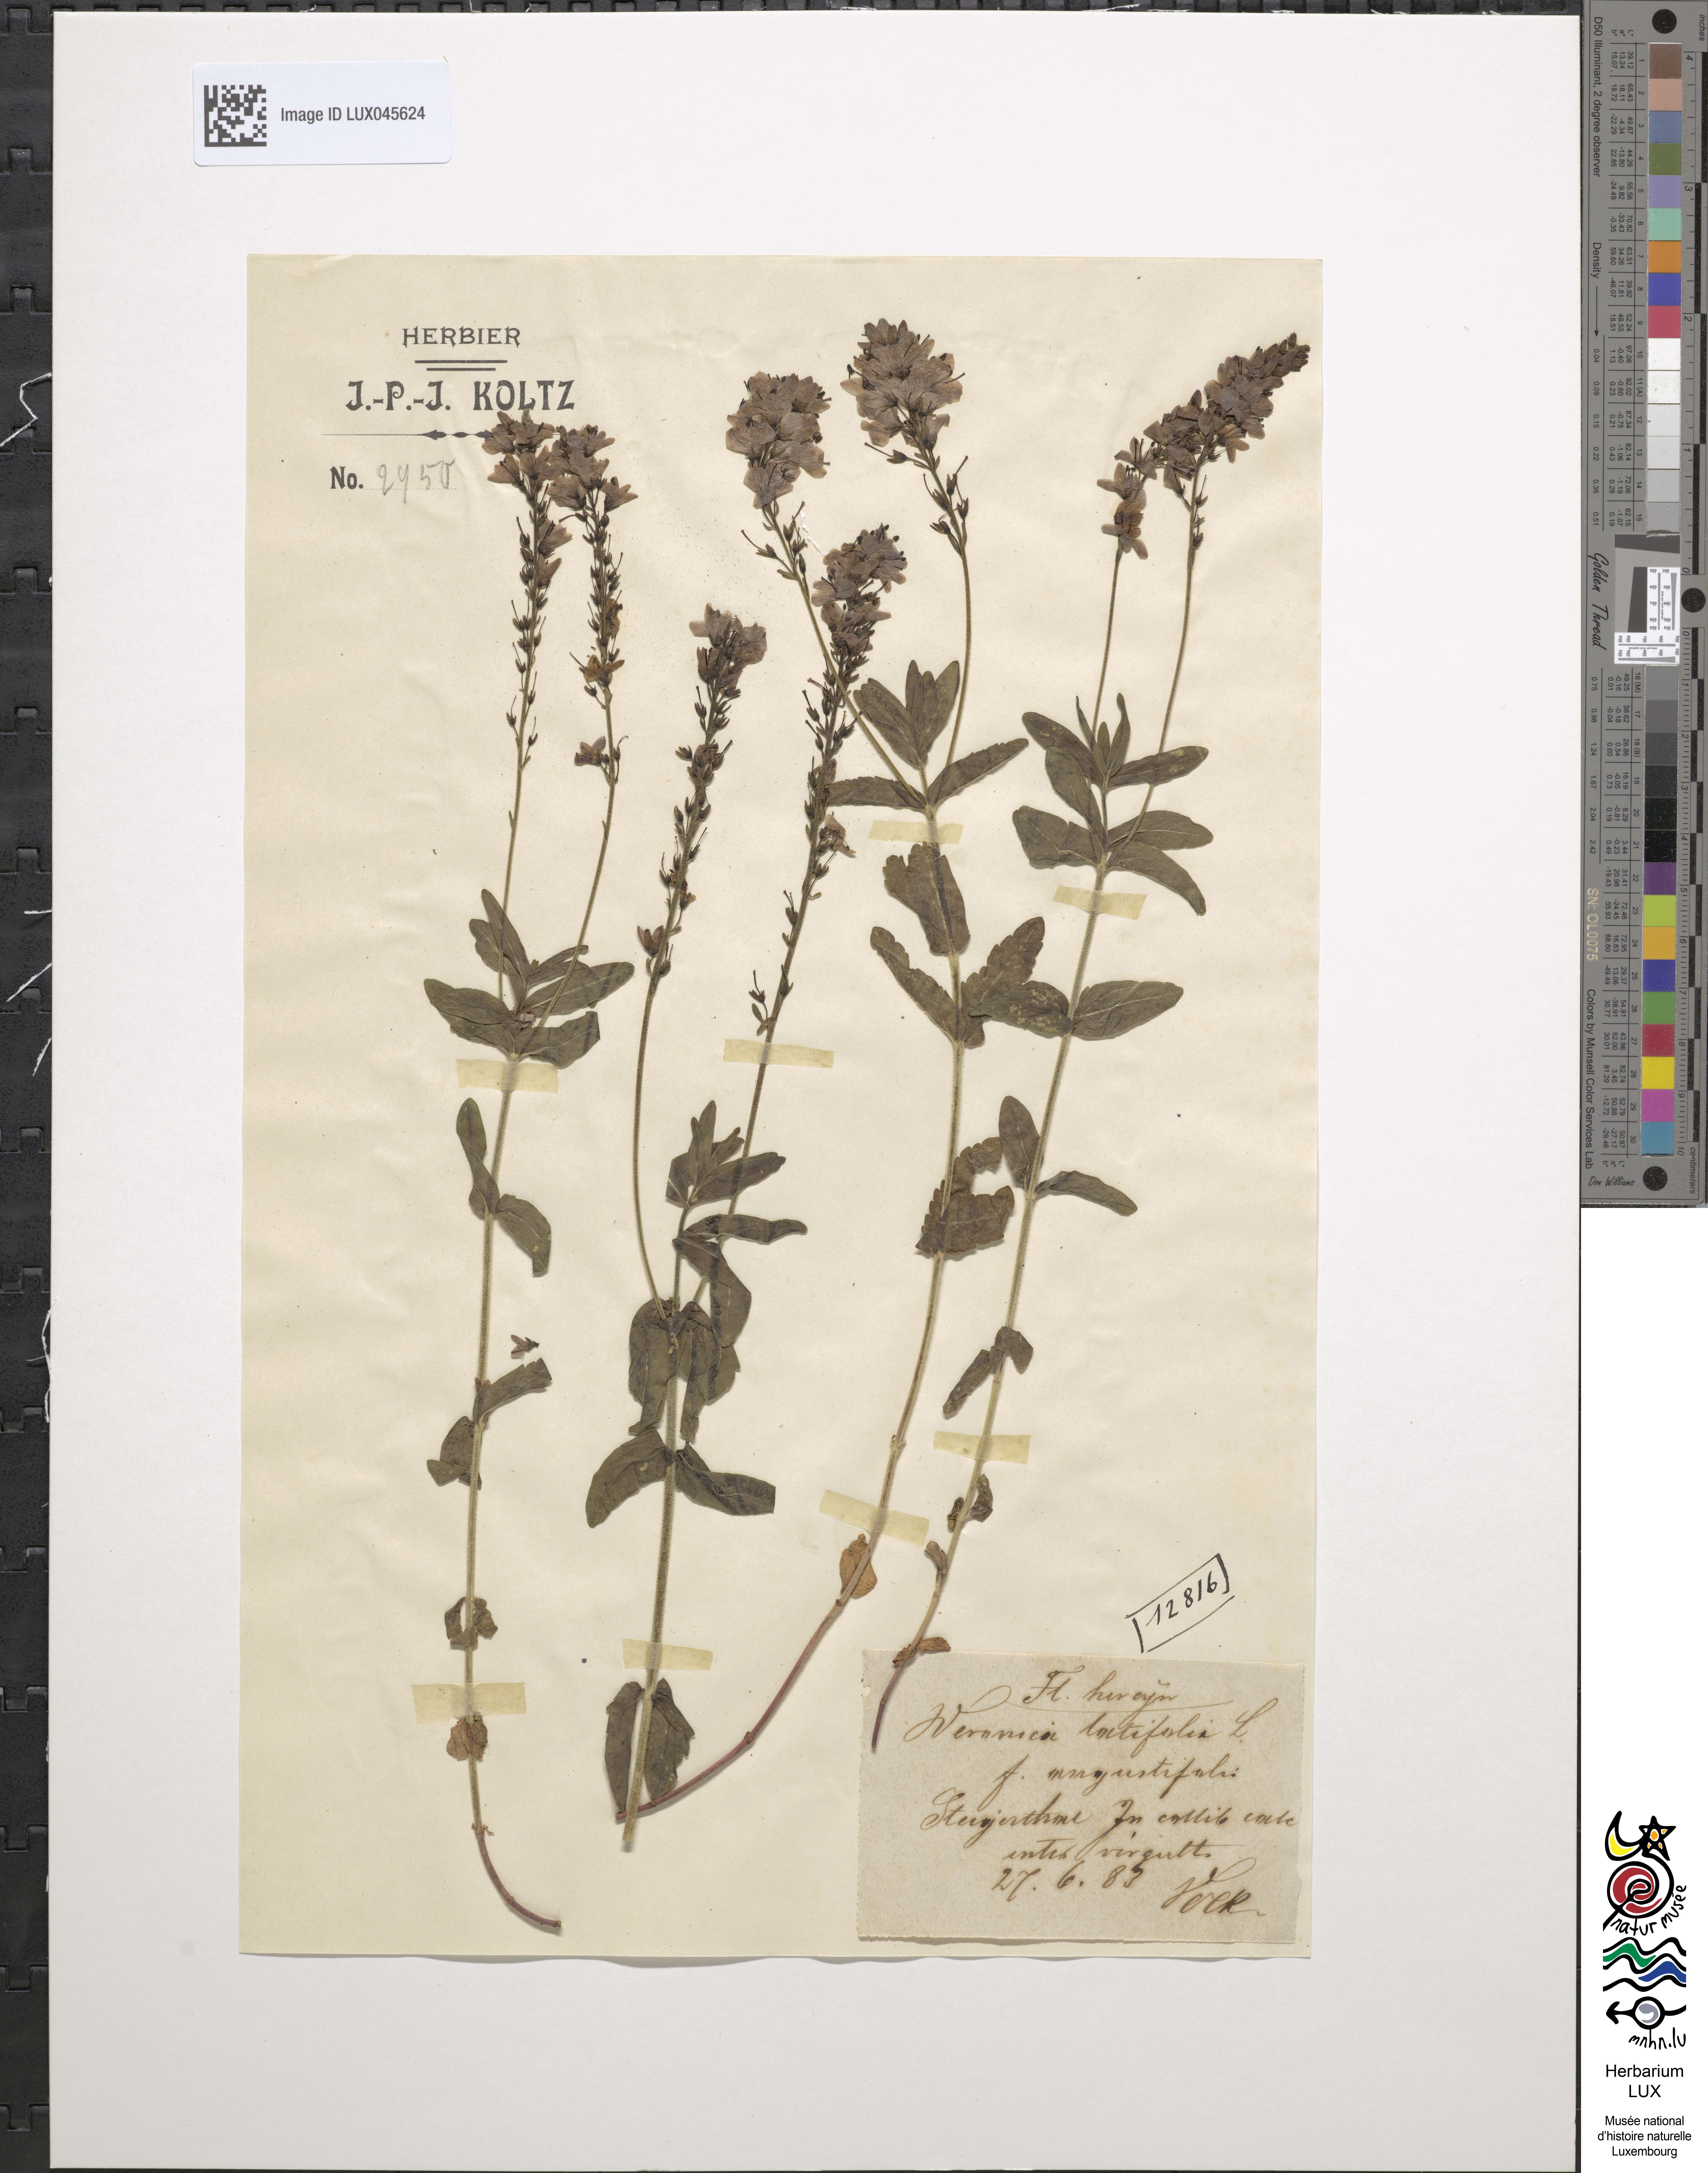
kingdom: Plantae
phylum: Tracheophyta
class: Magnoliopsida
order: Lamiales
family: Plantaginaceae
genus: Veronica
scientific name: Veronica urticifolia
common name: Nettle-leaf speedwell
